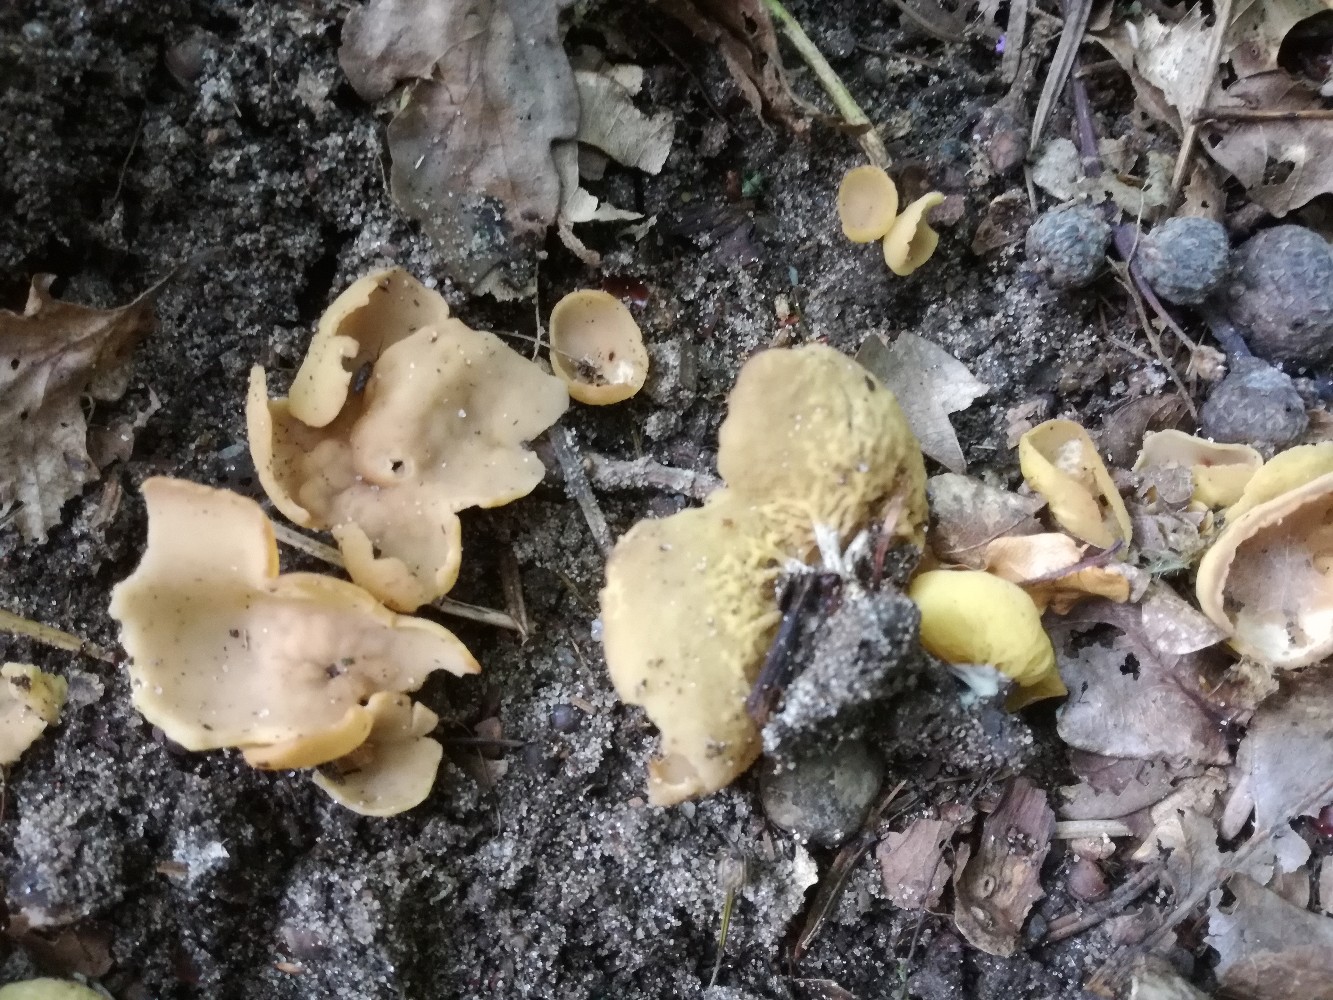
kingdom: Fungi
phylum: Ascomycota
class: Pezizomycetes
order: Pezizales
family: Otideaceae
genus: Otidea
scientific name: Otidea phlebophora
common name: året ørebæger
